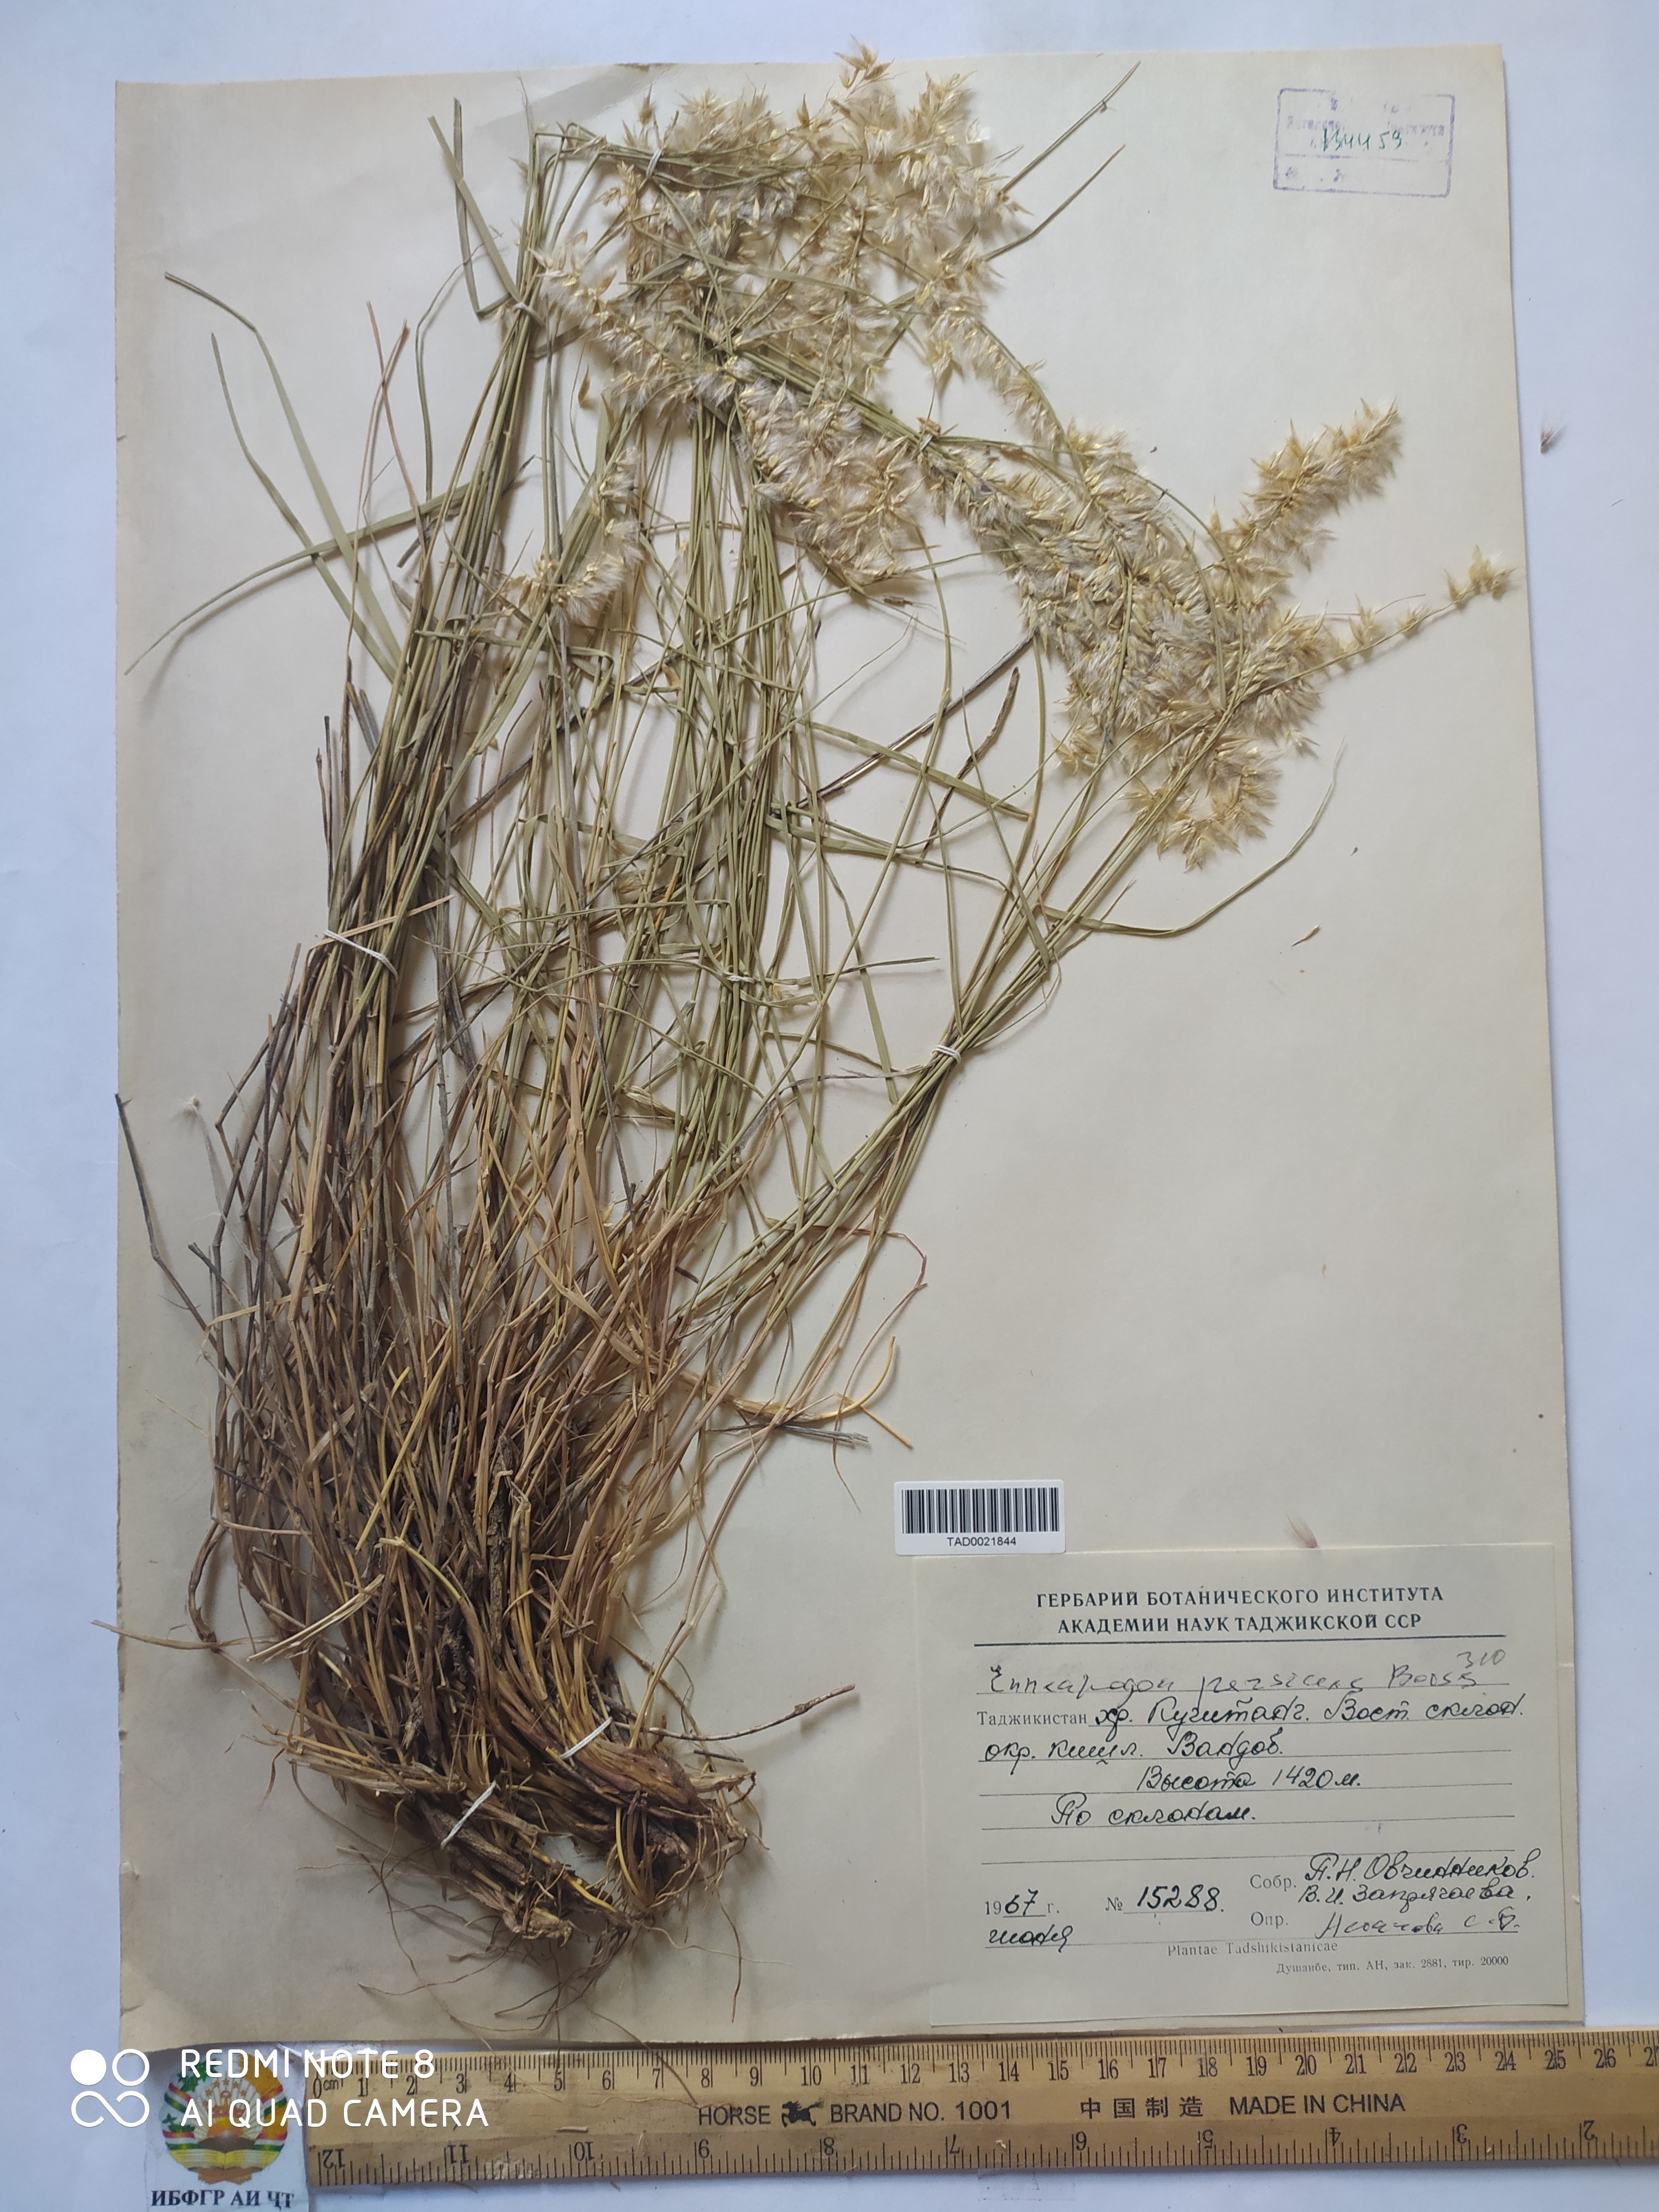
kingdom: Plantae
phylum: Tracheophyta
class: Liliopsida
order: Poales
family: Poaceae
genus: Enneapogon
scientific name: Enneapogon persicus
